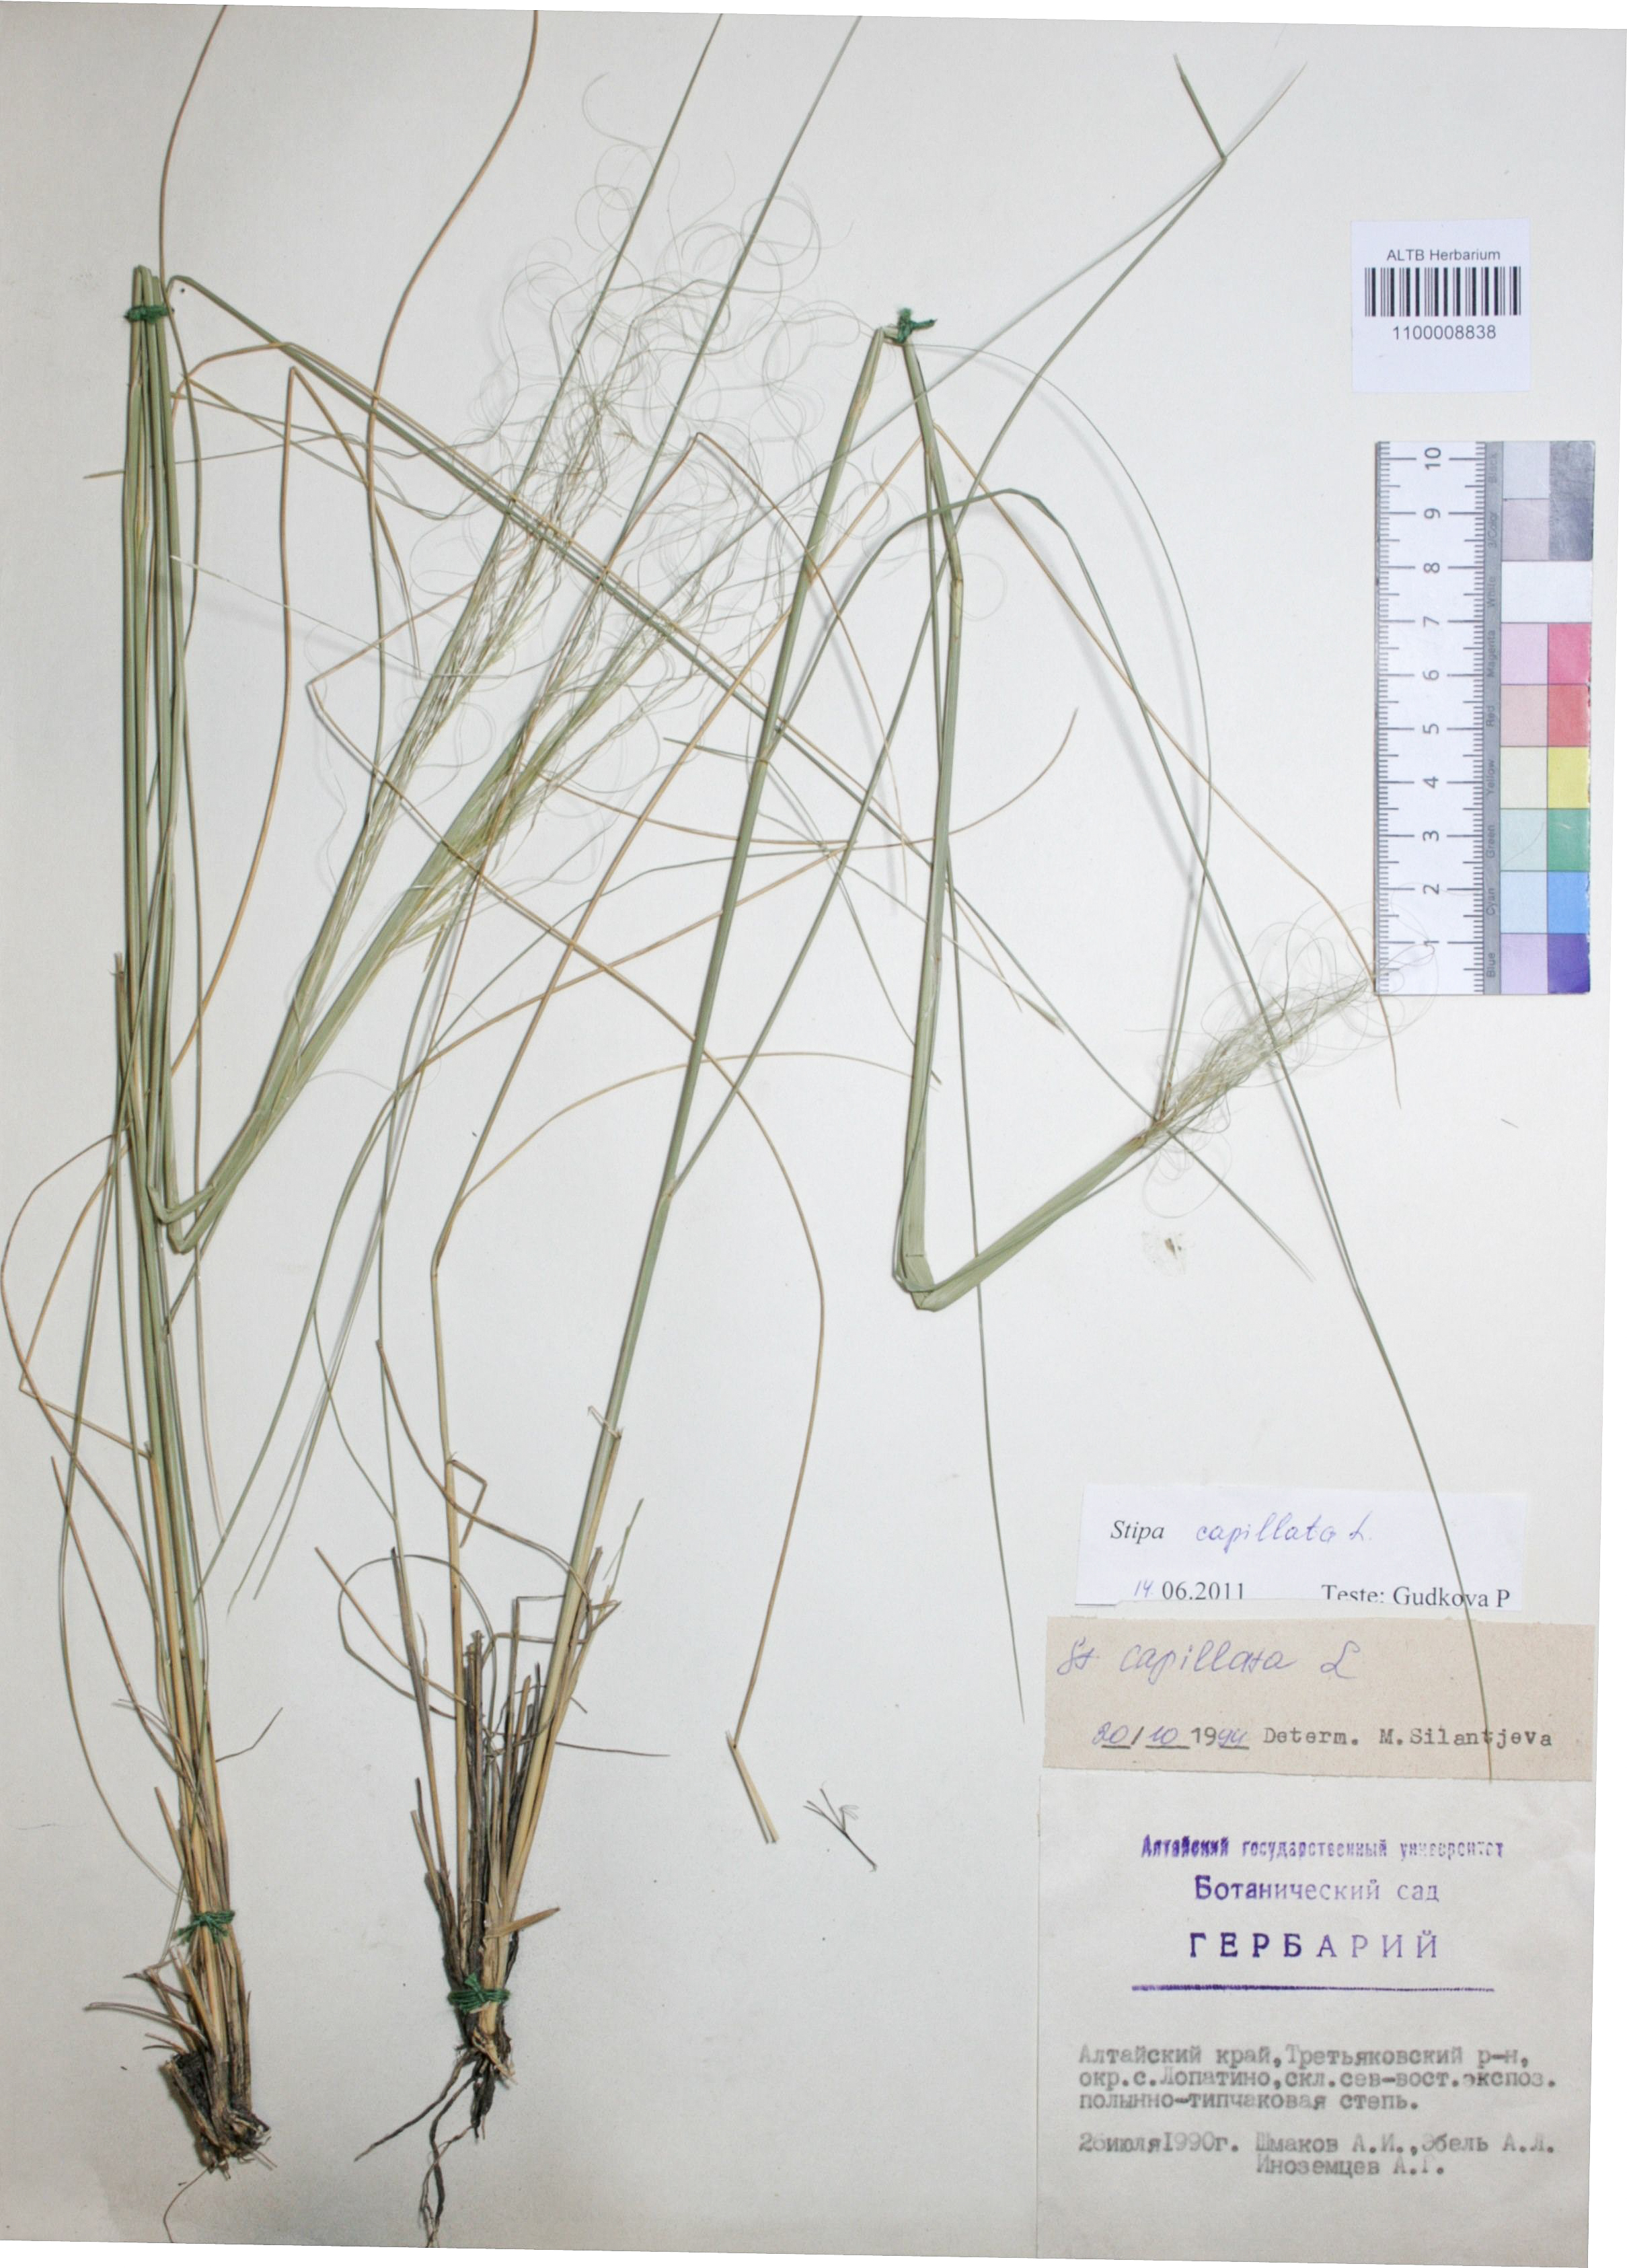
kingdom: Plantae
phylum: Tracheophyta
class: Liliopsida
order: Poales
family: Poaceae
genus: Stipa
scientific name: Stipa capillata
